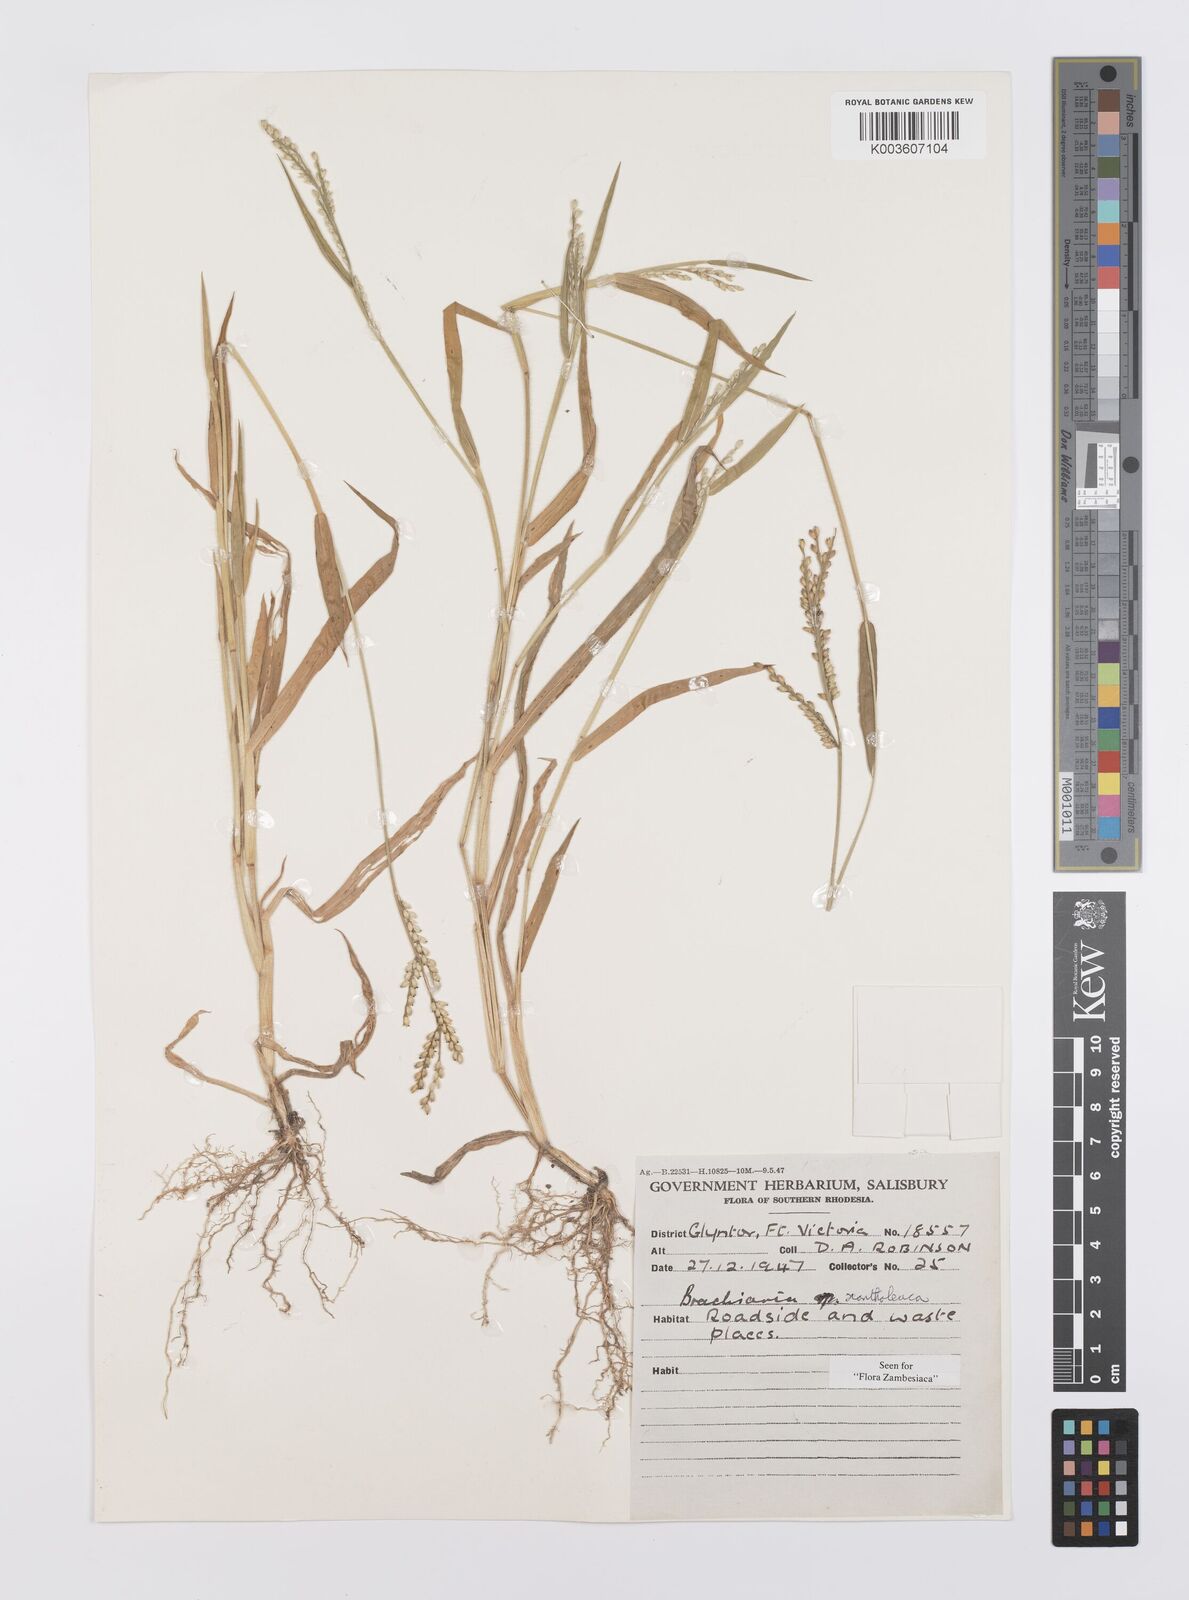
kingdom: Plantae
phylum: Tracheophyta
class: Liliopsida
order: Poales
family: Poaceae
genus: Urochloa
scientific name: Urochloa xantholeuca
